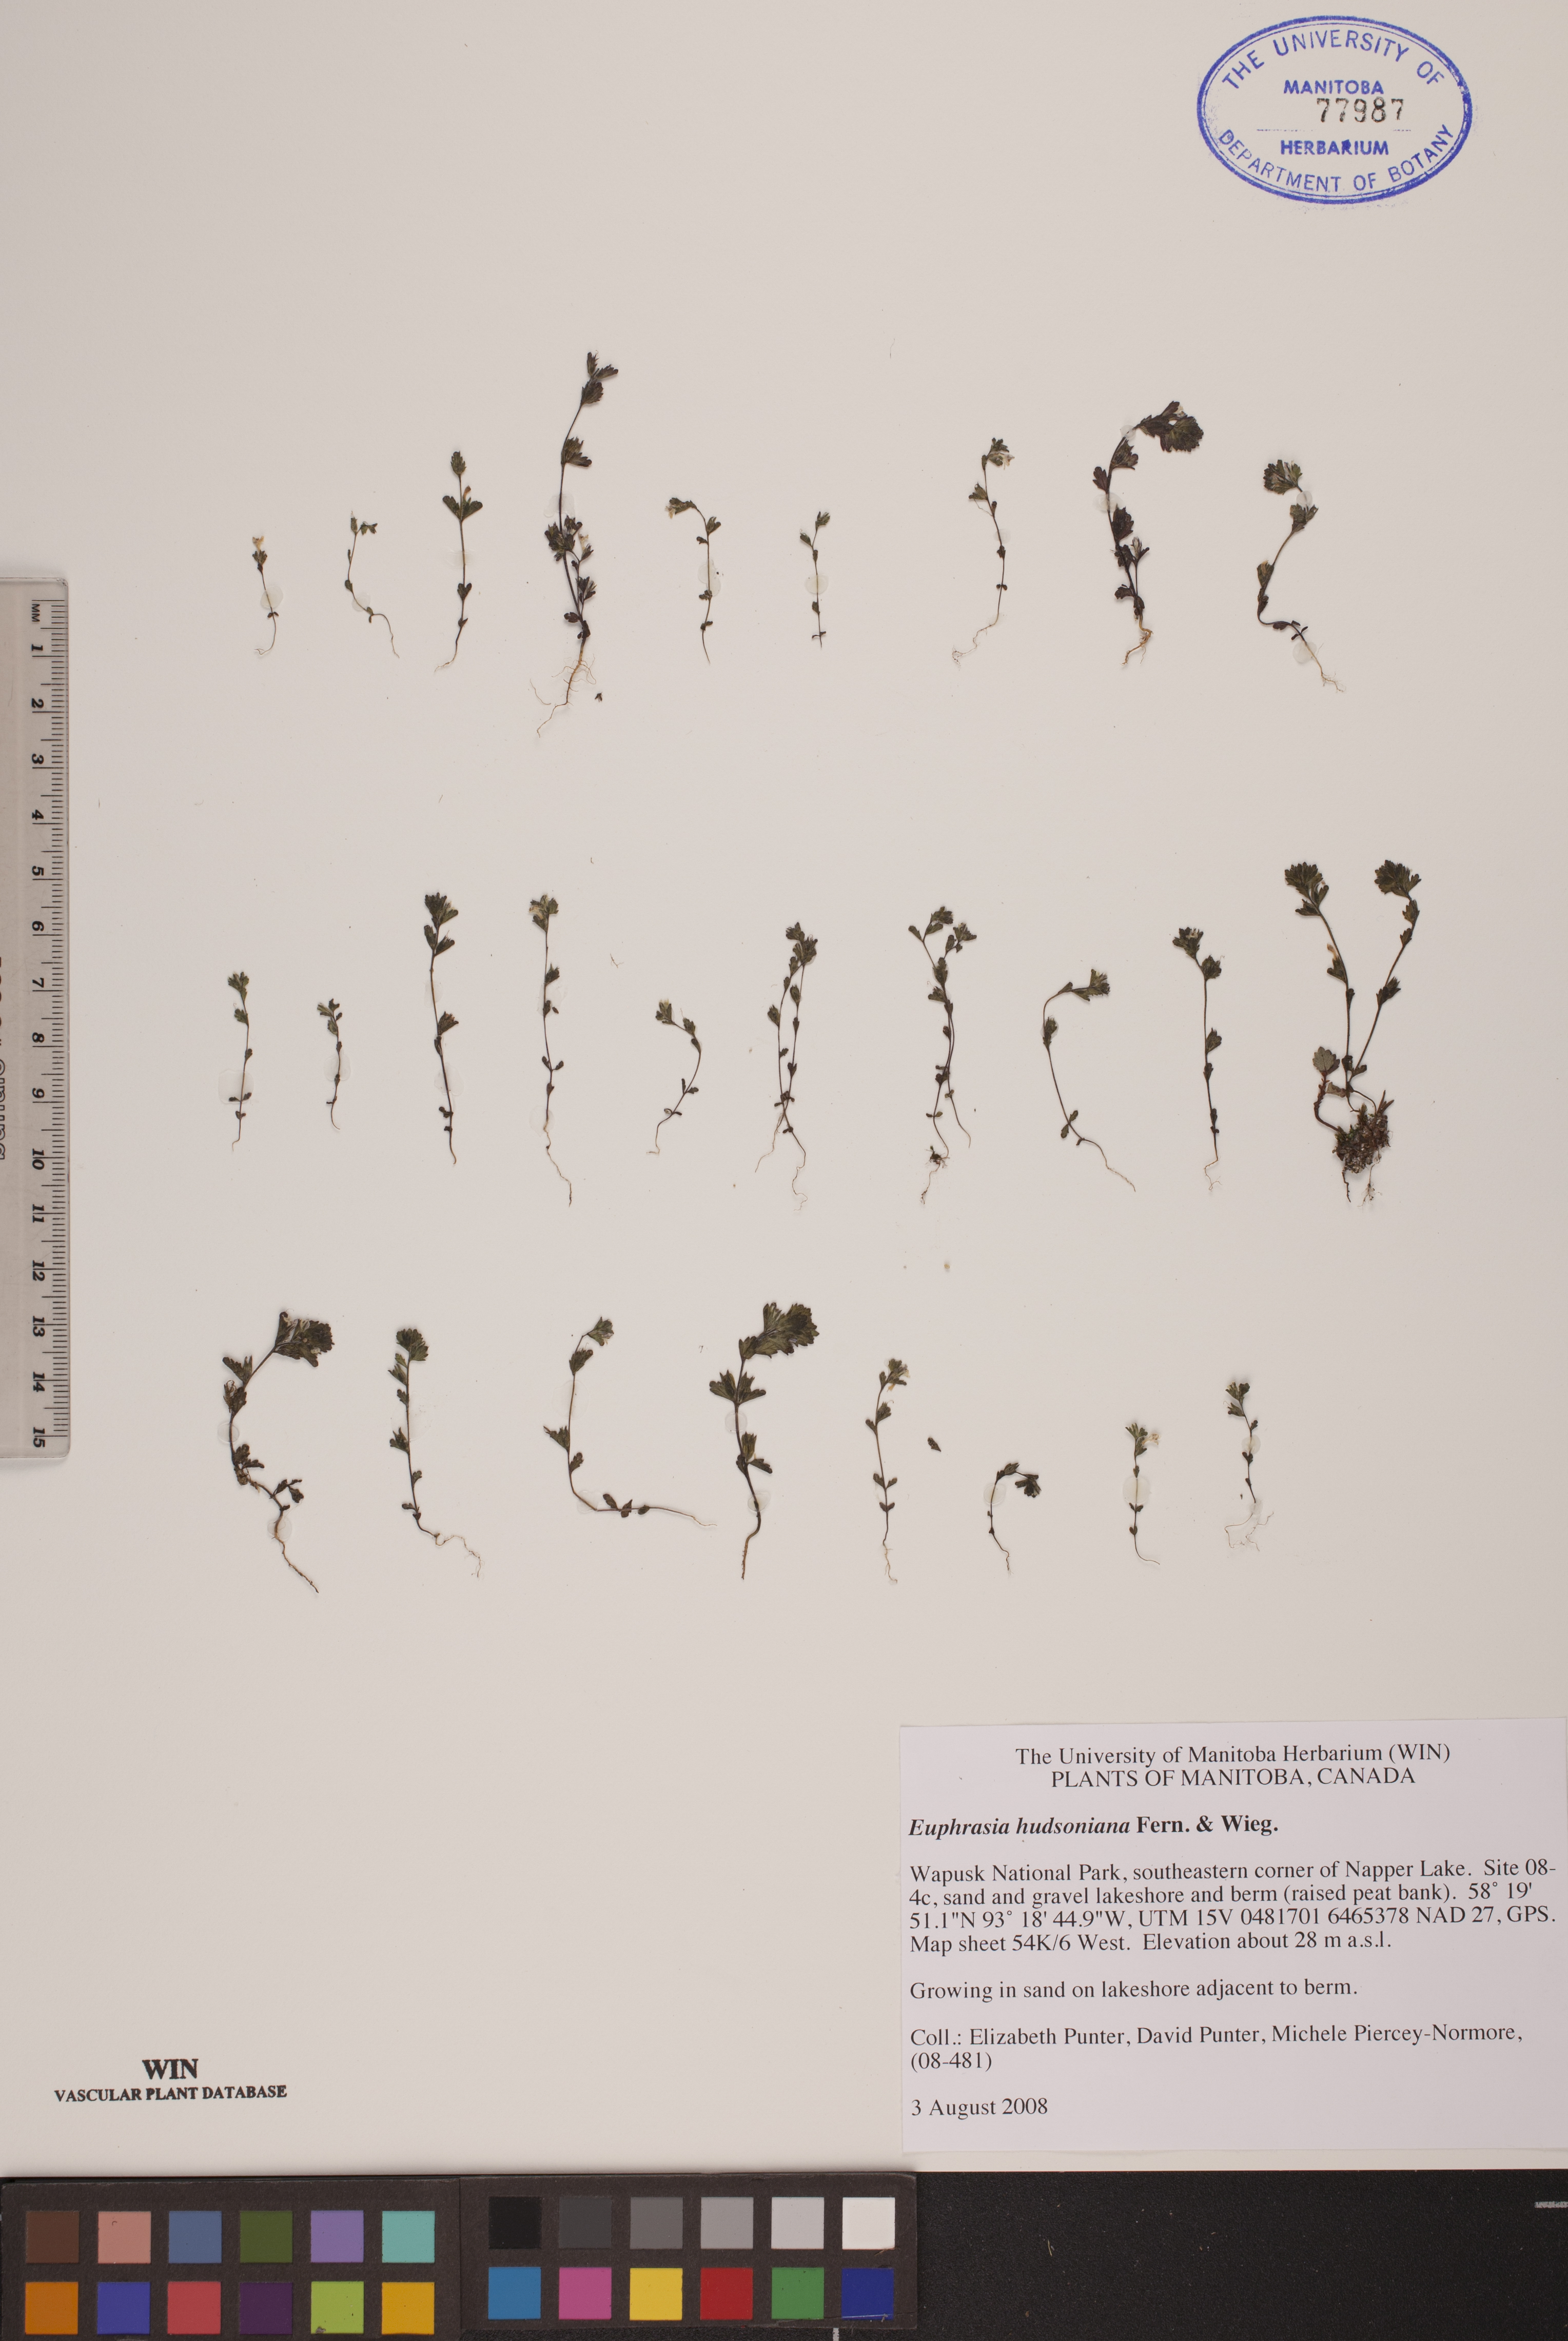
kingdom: Plantae
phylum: Tracheophyta
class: Magnoliopsida
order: Lamiales
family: Orobanchaceae
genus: Euphrasia
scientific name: Euphrasia hudsoniana
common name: Hudson bay eyebright
